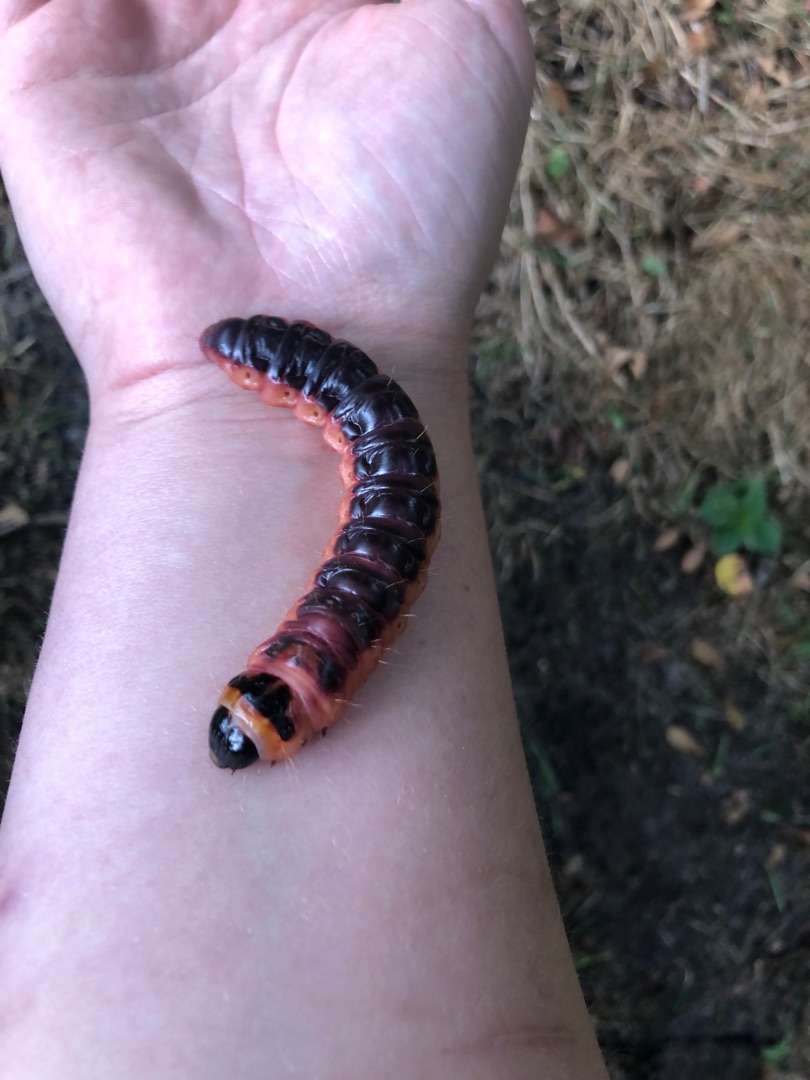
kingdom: Animalia
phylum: Arthropoda
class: Insecta
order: Lepidoptera
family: Cossidae
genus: Cossus
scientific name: Cossus cossus
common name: Pileborer
